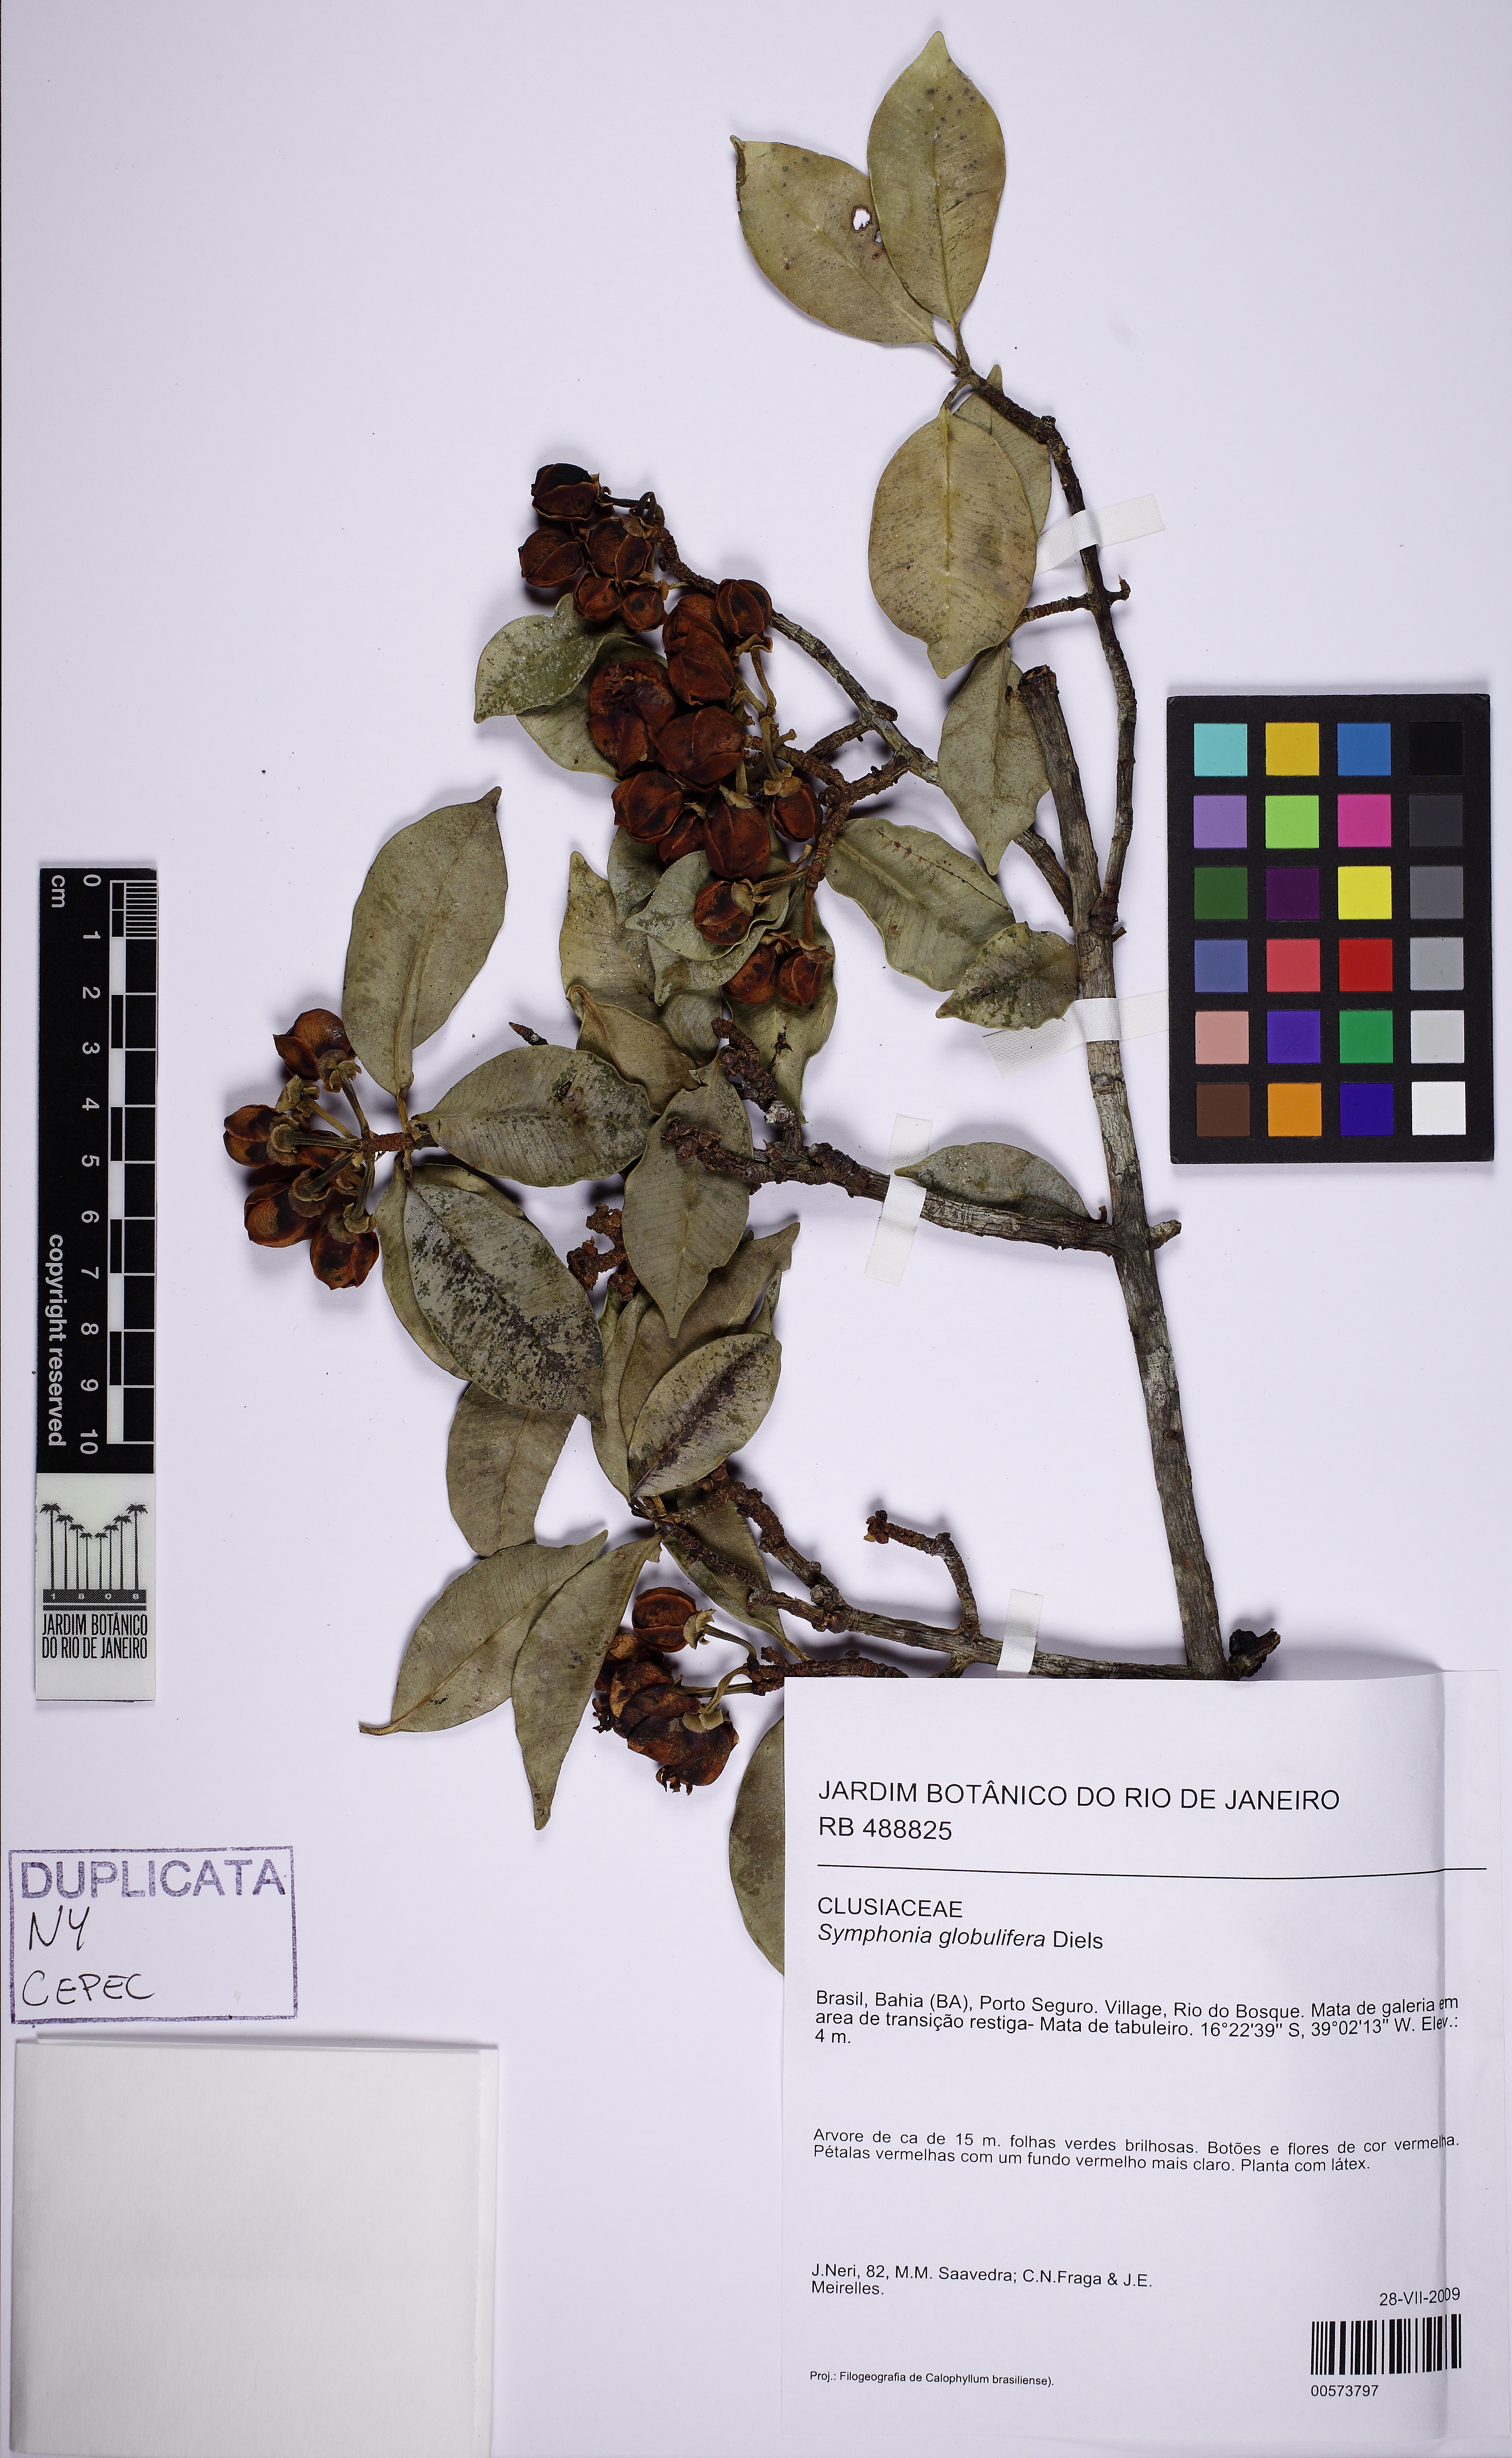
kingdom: Plantae
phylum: Tracheophyta
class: Magnoliopsida
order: Malpighiales
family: Clusiaceae
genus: Symphonia
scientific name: Symphonia globulifera
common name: Boarwood
